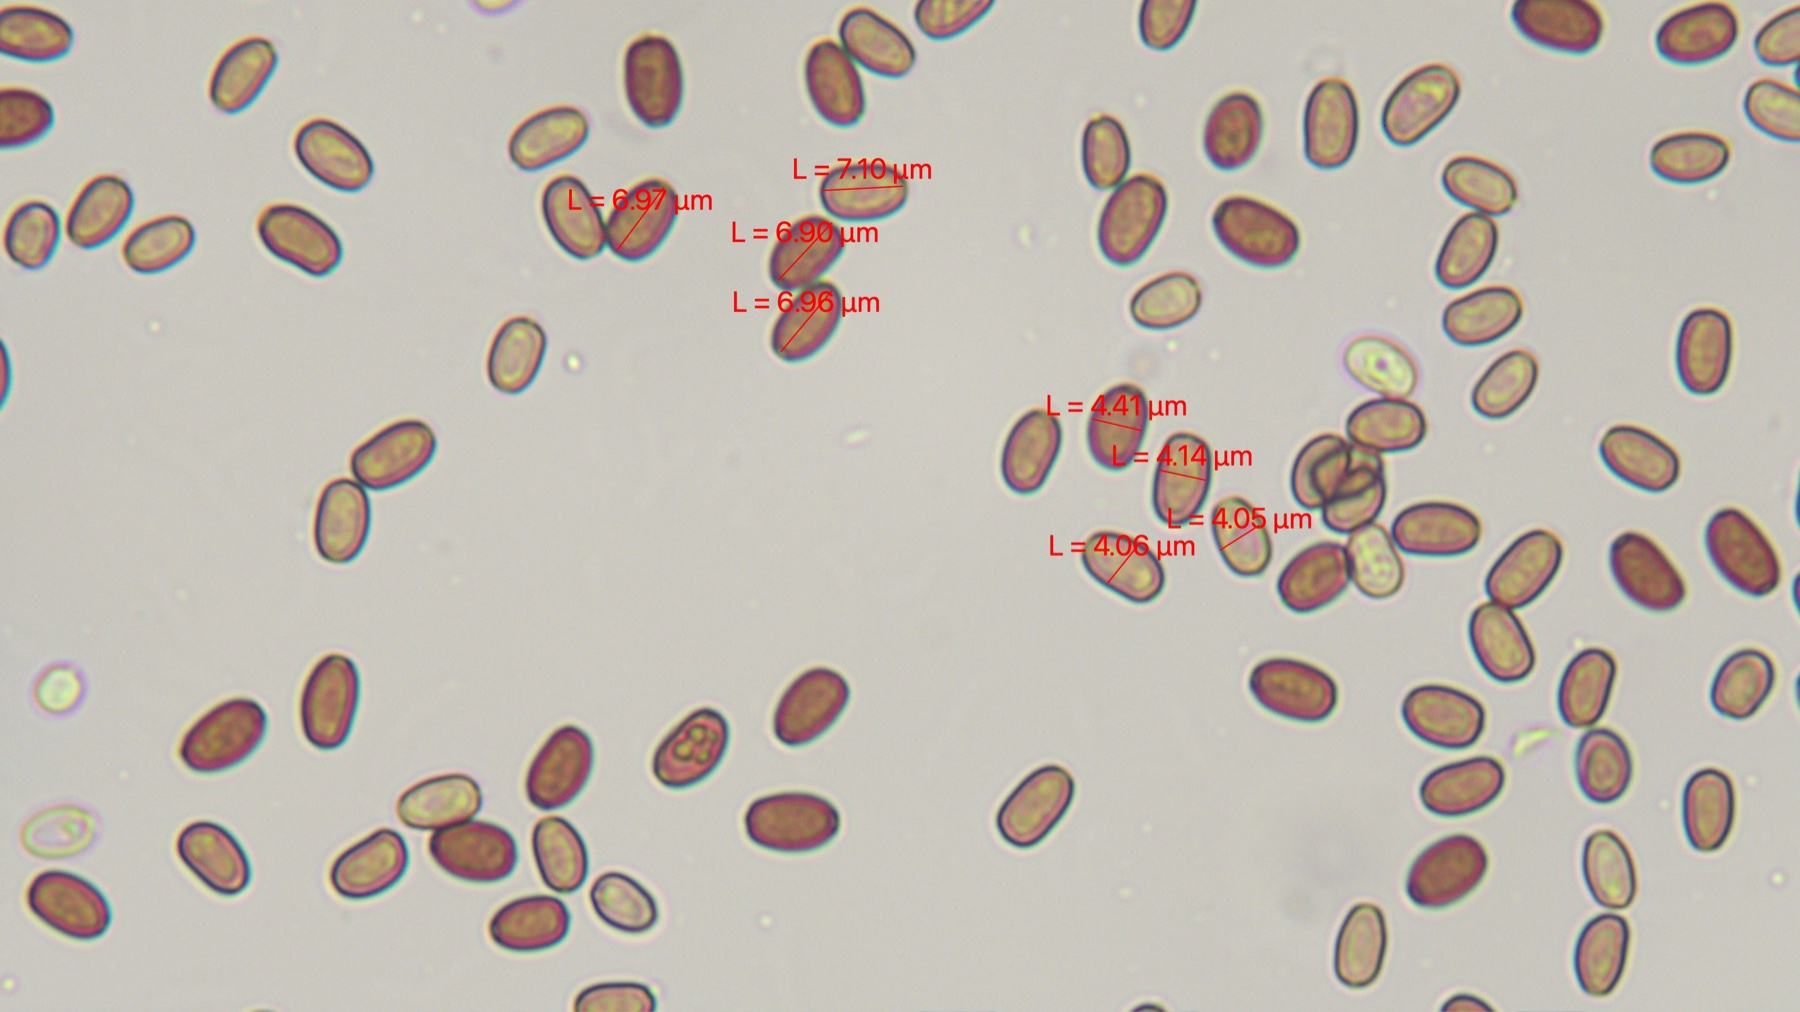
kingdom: Fungi
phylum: Basidiomycota
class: Agaricomycetes
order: Agaricales
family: Psathyrellaceae
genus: Psathyrella
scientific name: Psathyrella
